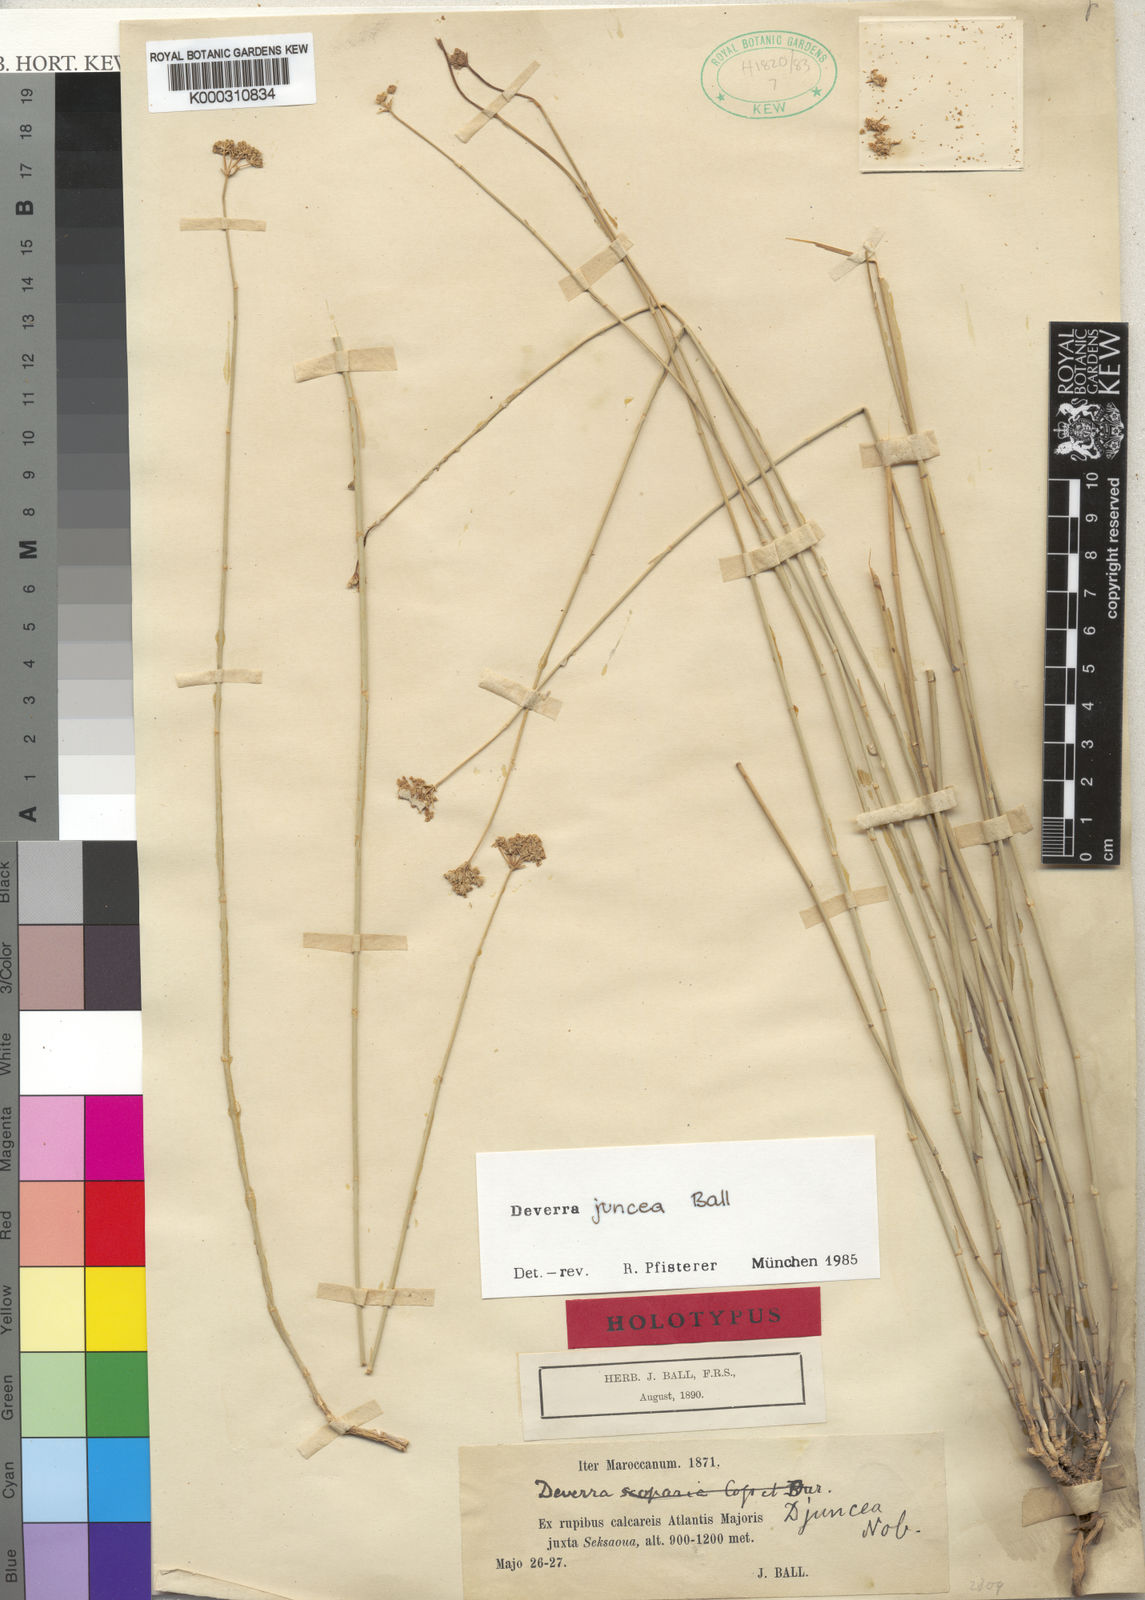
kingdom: Plantae
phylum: Tracheophyta
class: Magnoliopsida
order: Apiales
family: Apiaceae
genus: Deverra
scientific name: Deverra
